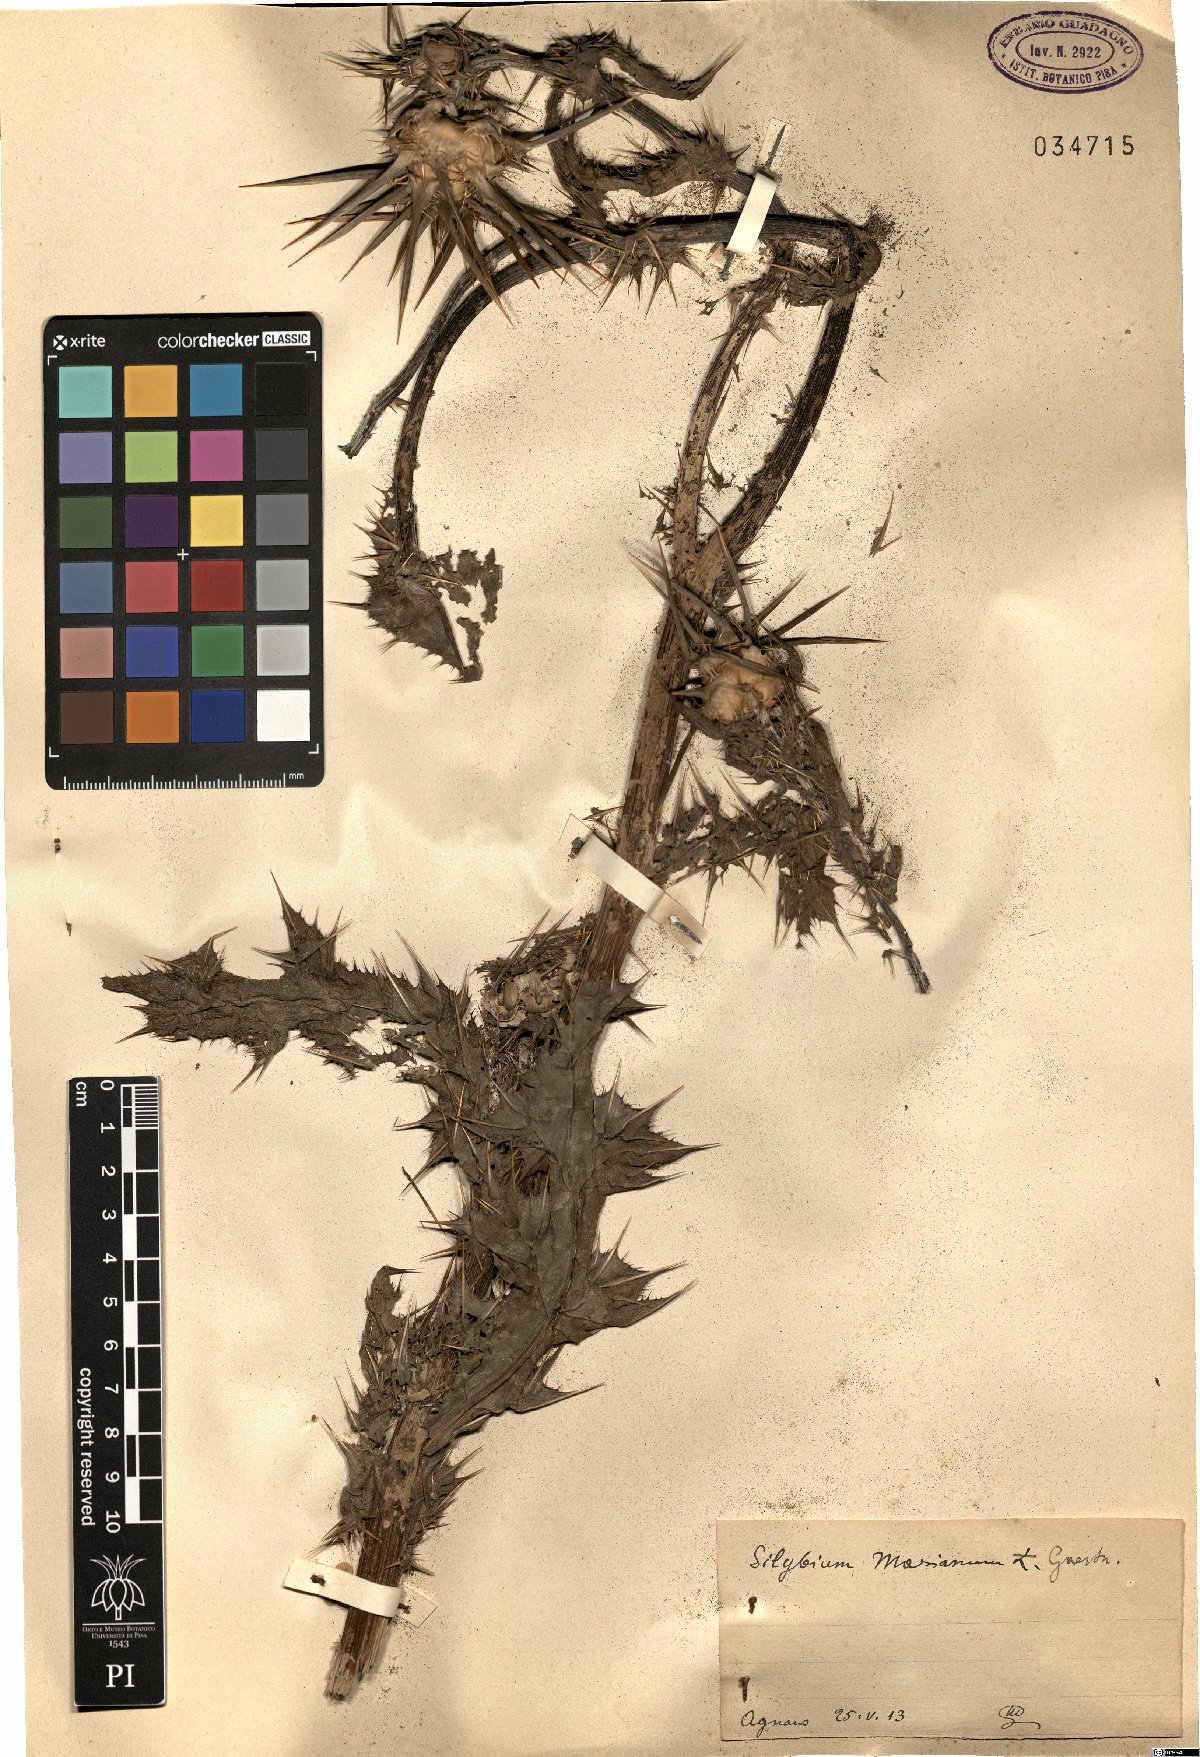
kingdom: Plantae
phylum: Tracheophyta
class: Magnoliopsida
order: Asterales
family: Asteraceae
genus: Silybum
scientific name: Silybum marianum
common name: Milk thistle
